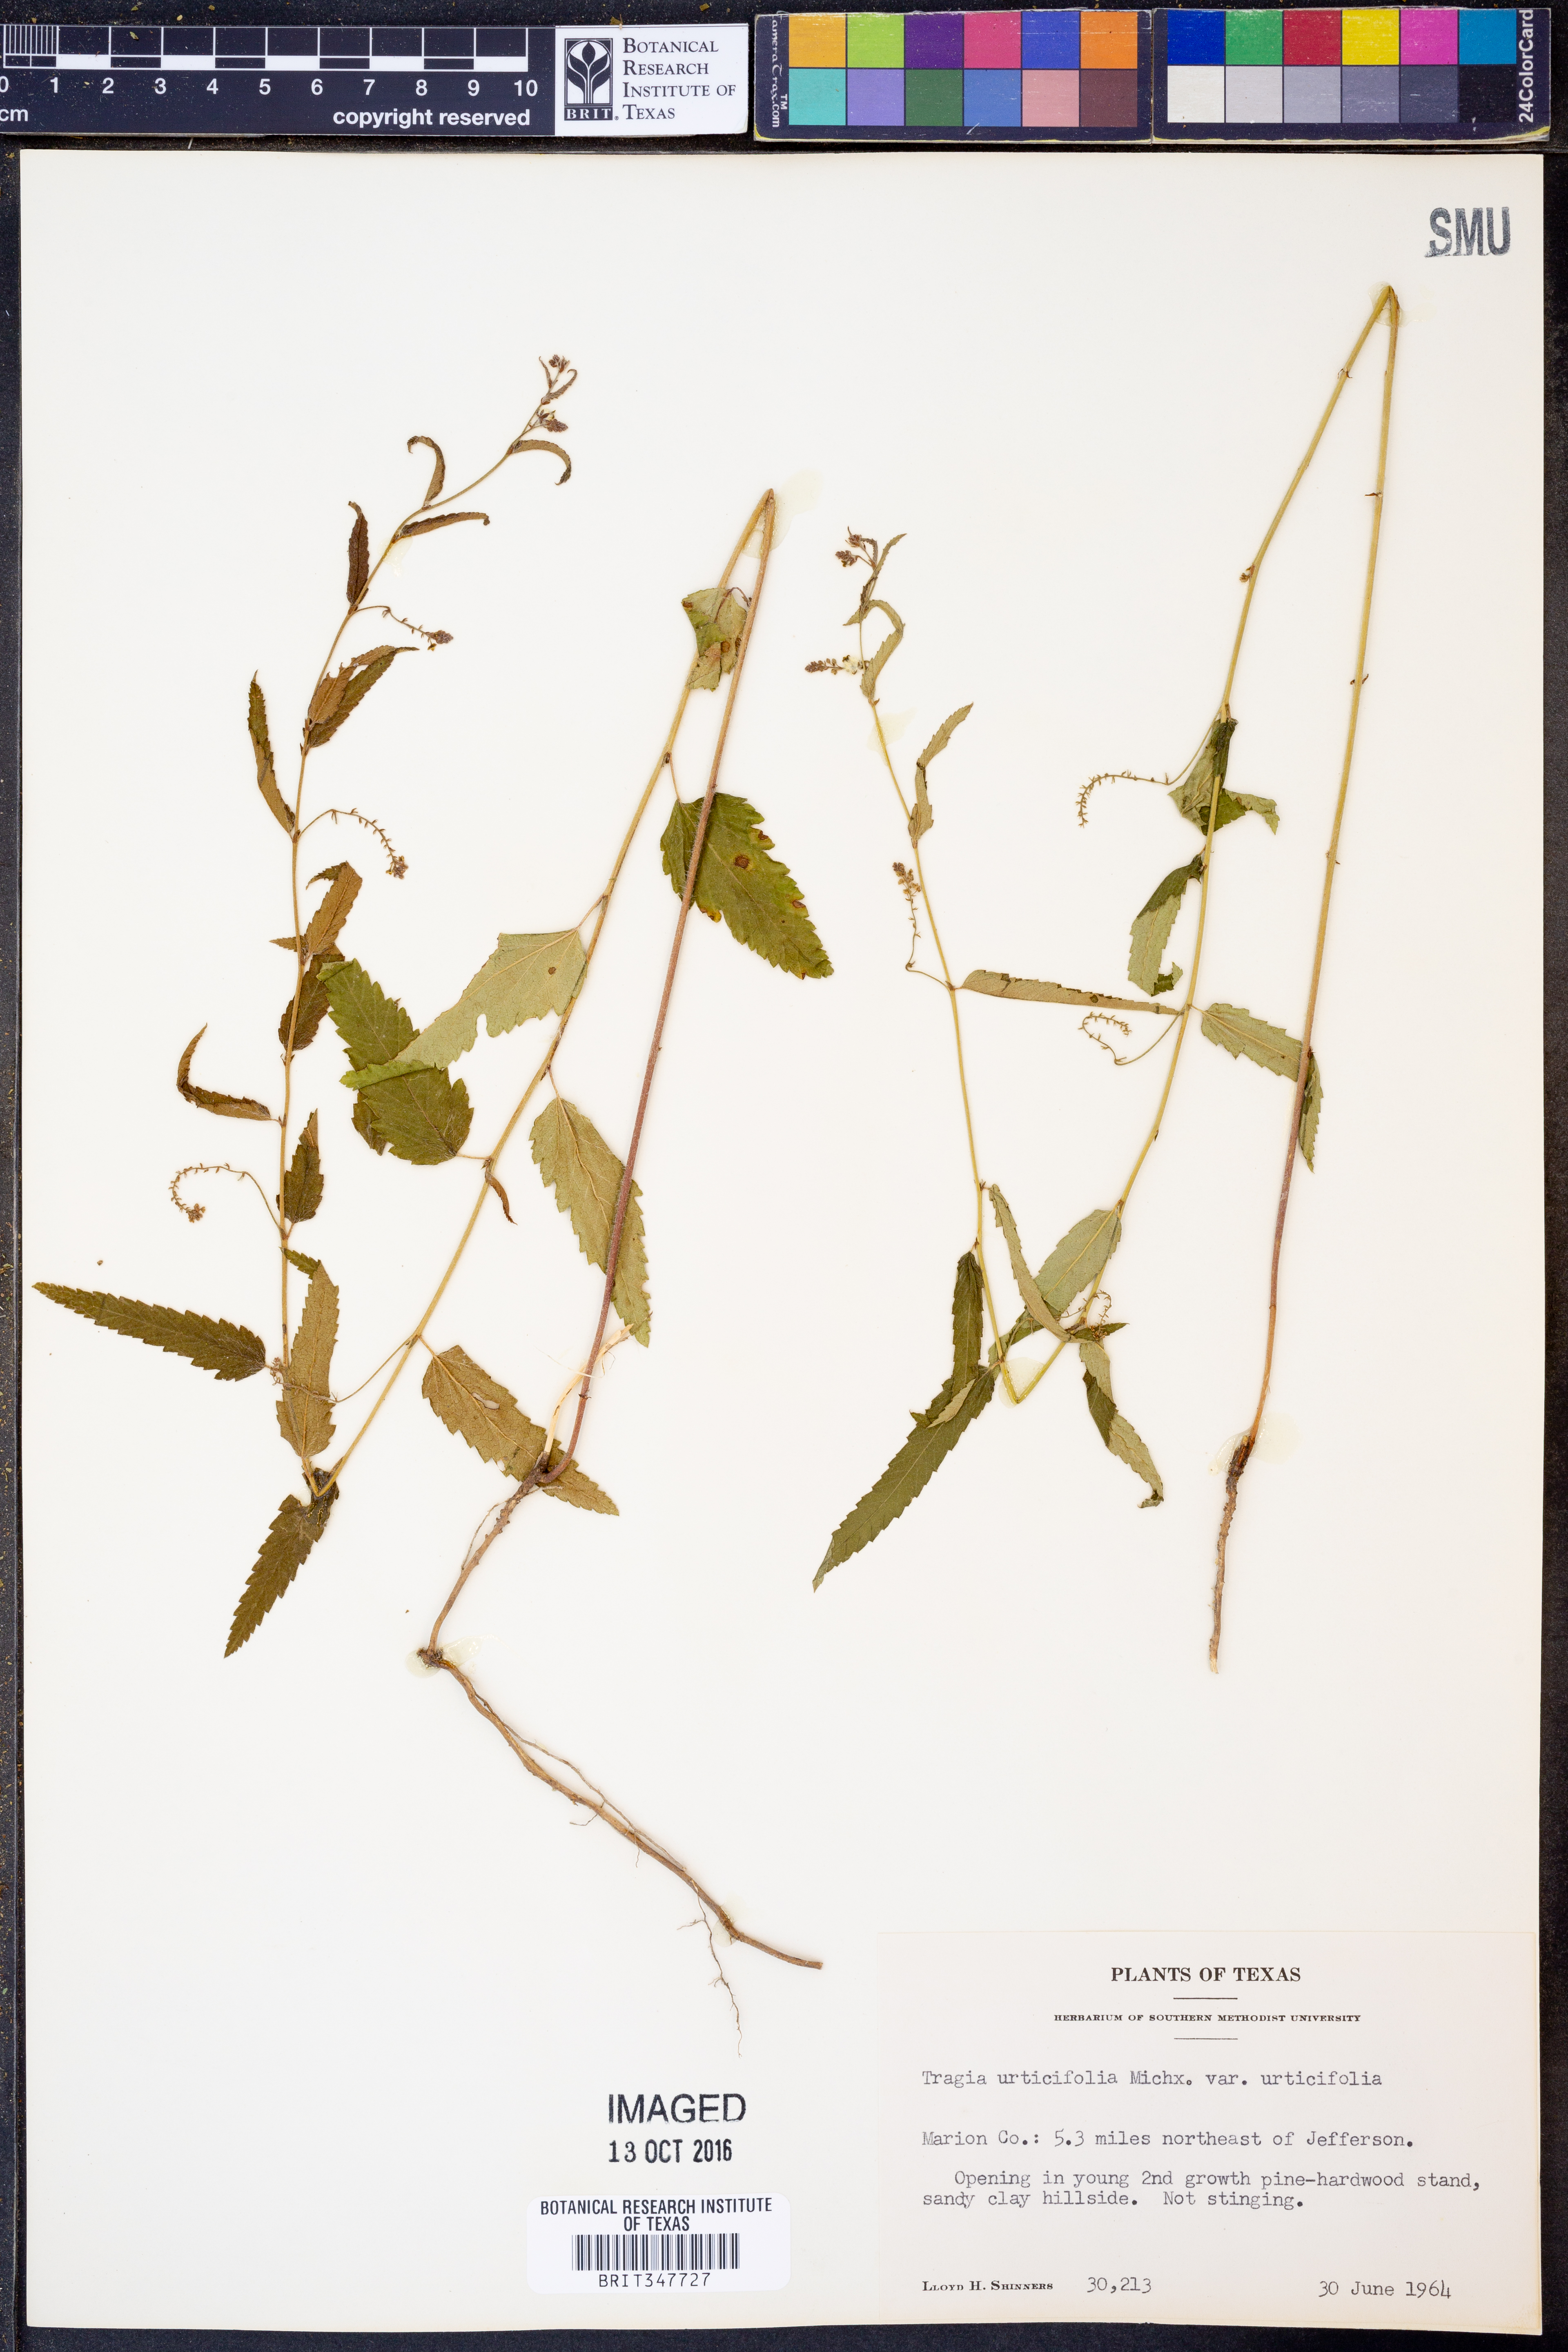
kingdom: Plantae
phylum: Tracheophyta
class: Magnoliopsida
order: Malpighiales
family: Euphorbiaceae
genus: Tragia
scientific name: Tragia urticifolia
